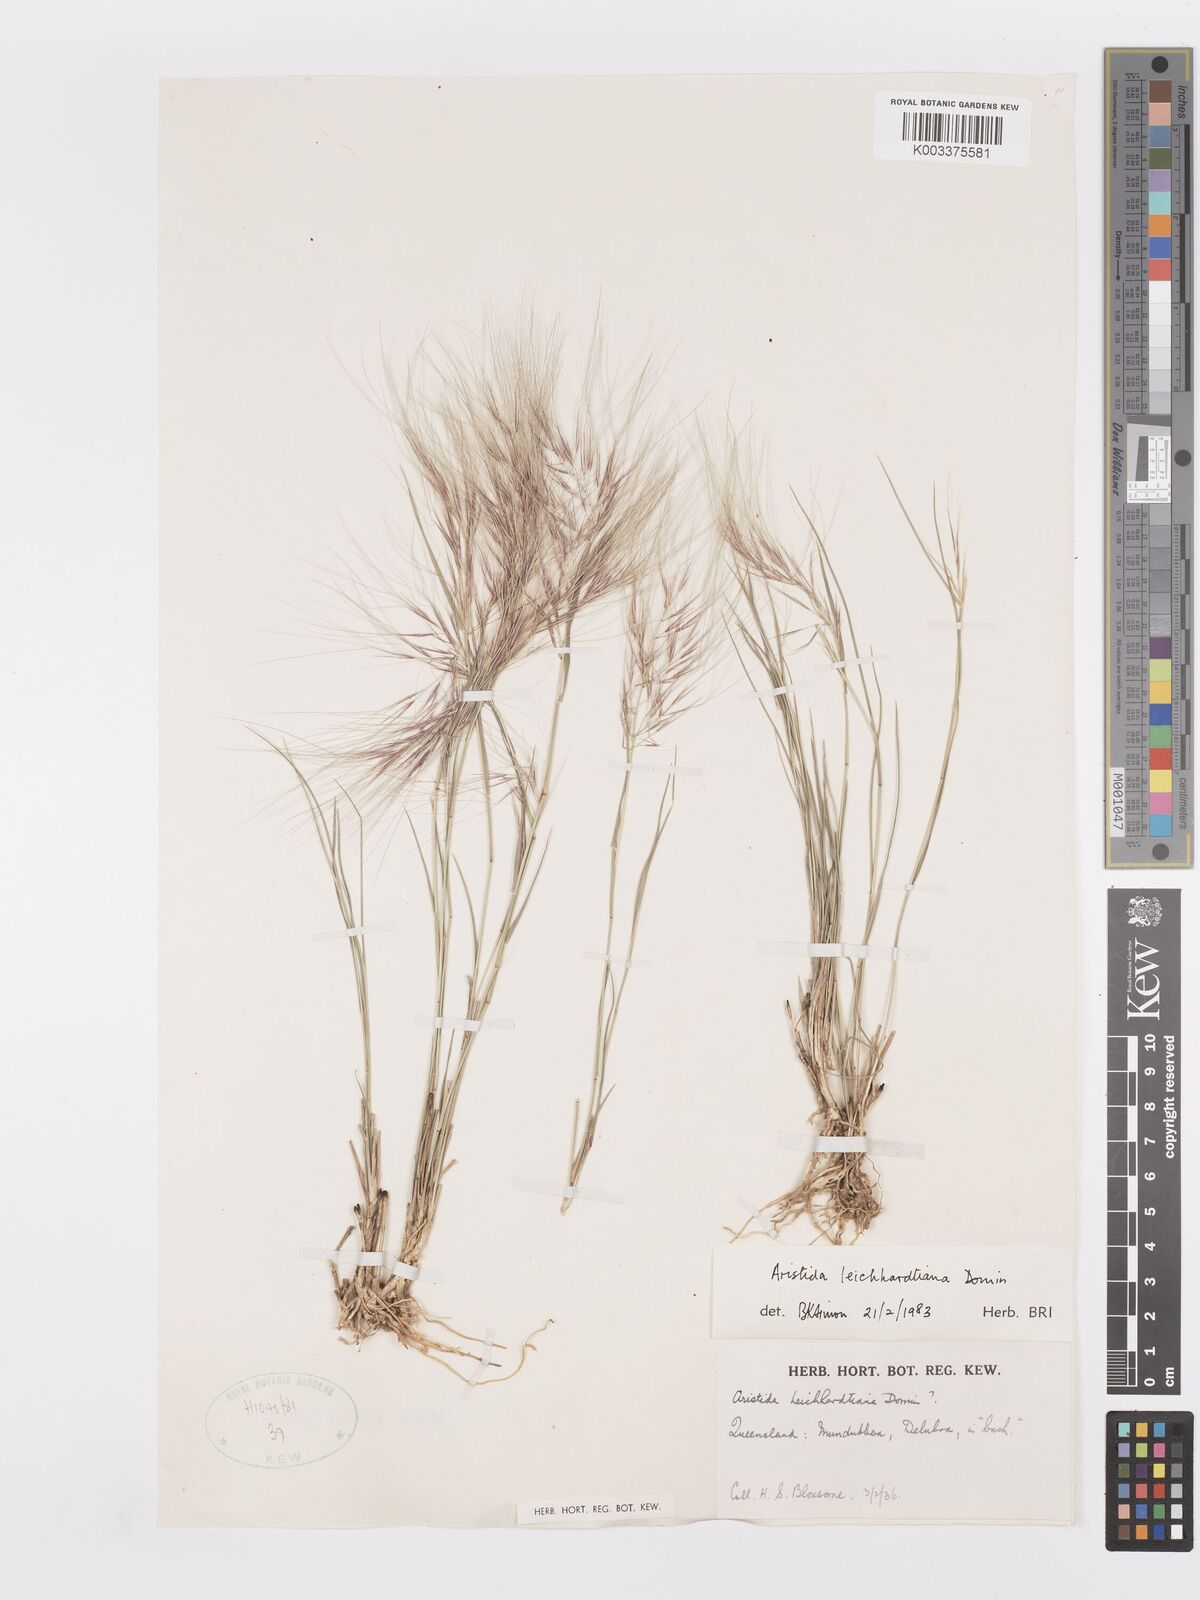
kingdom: Plantae
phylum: Tracheophyta
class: Liliopsida
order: Poales
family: Poaceae
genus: Aristida
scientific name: Aristida leichhardtiana
